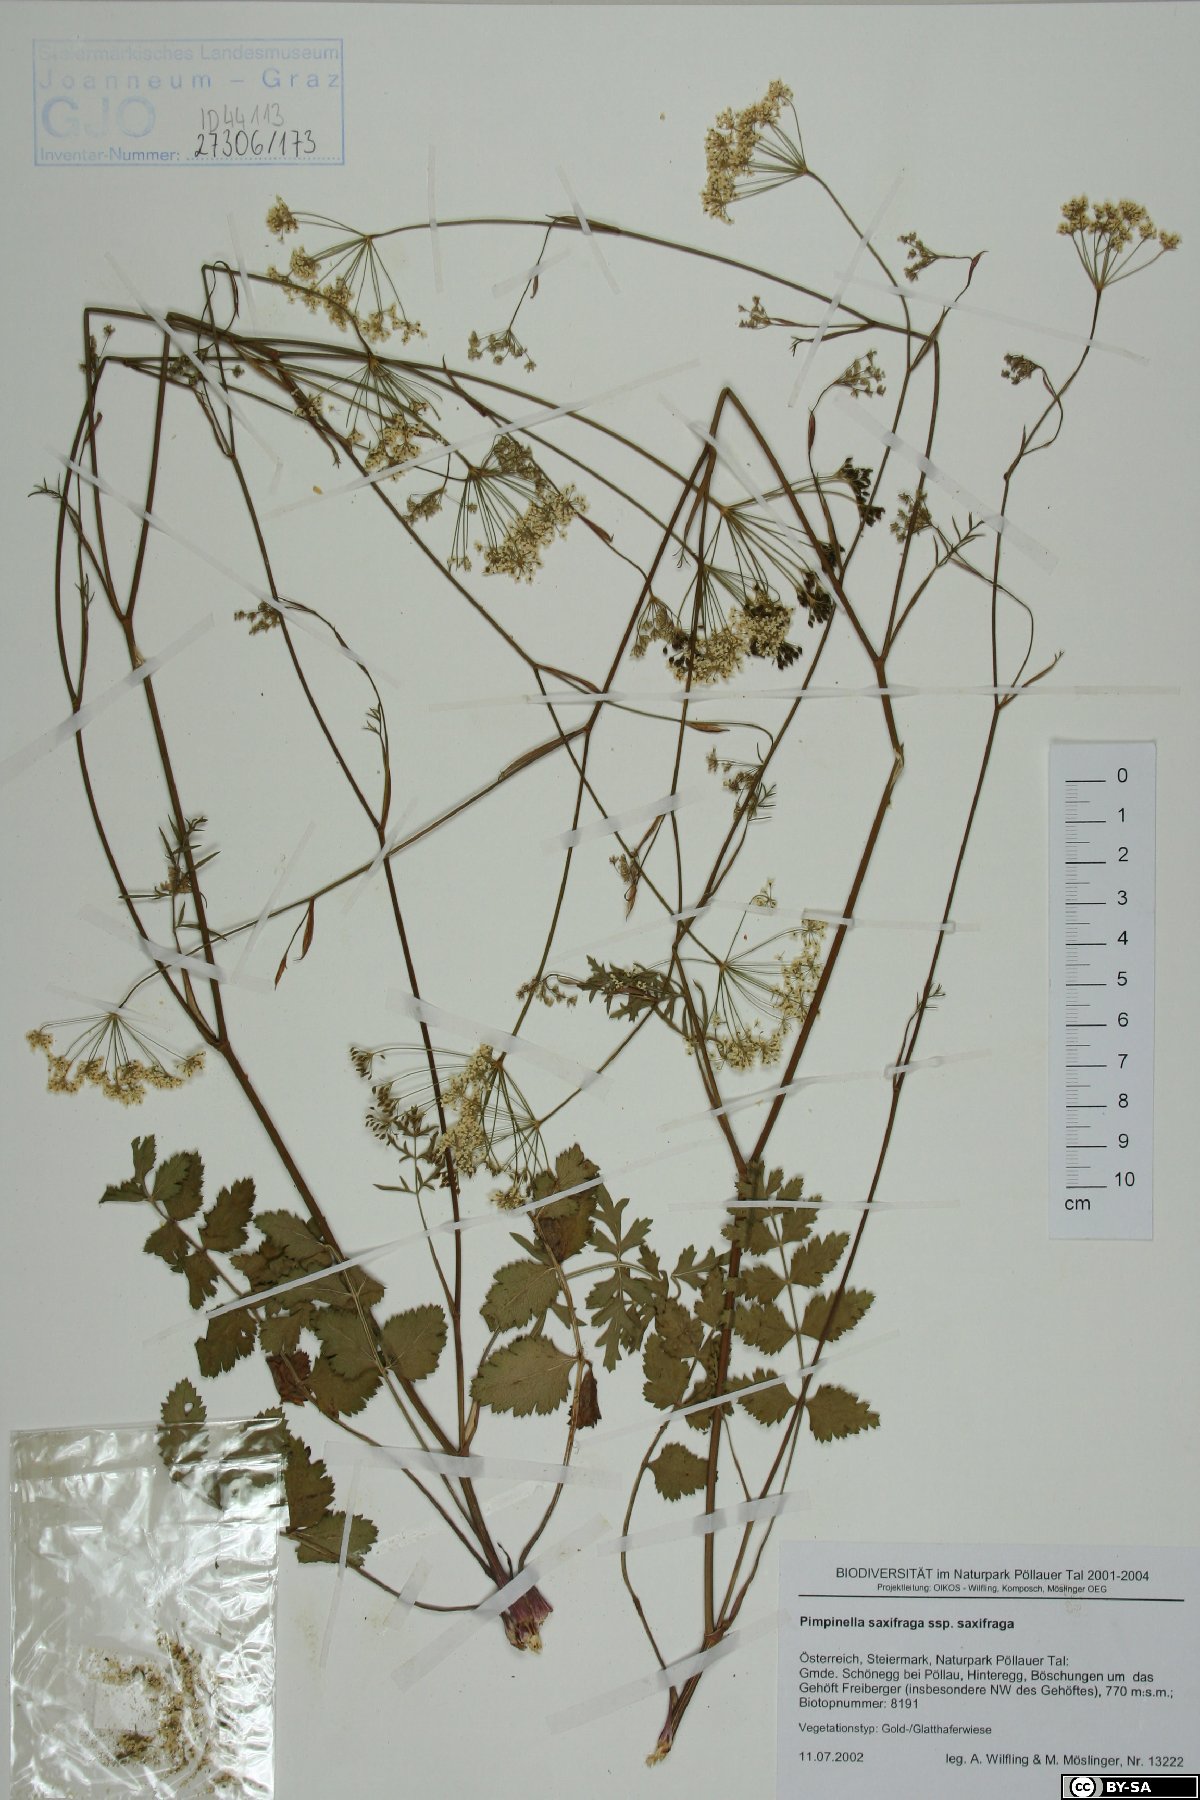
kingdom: Plantae
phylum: Tracheophyta
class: Magnoliopsida
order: Apiales
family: Apiaceae
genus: Pimpinella
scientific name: Pimpinella saxifraga
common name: Burnet-saxifrage
